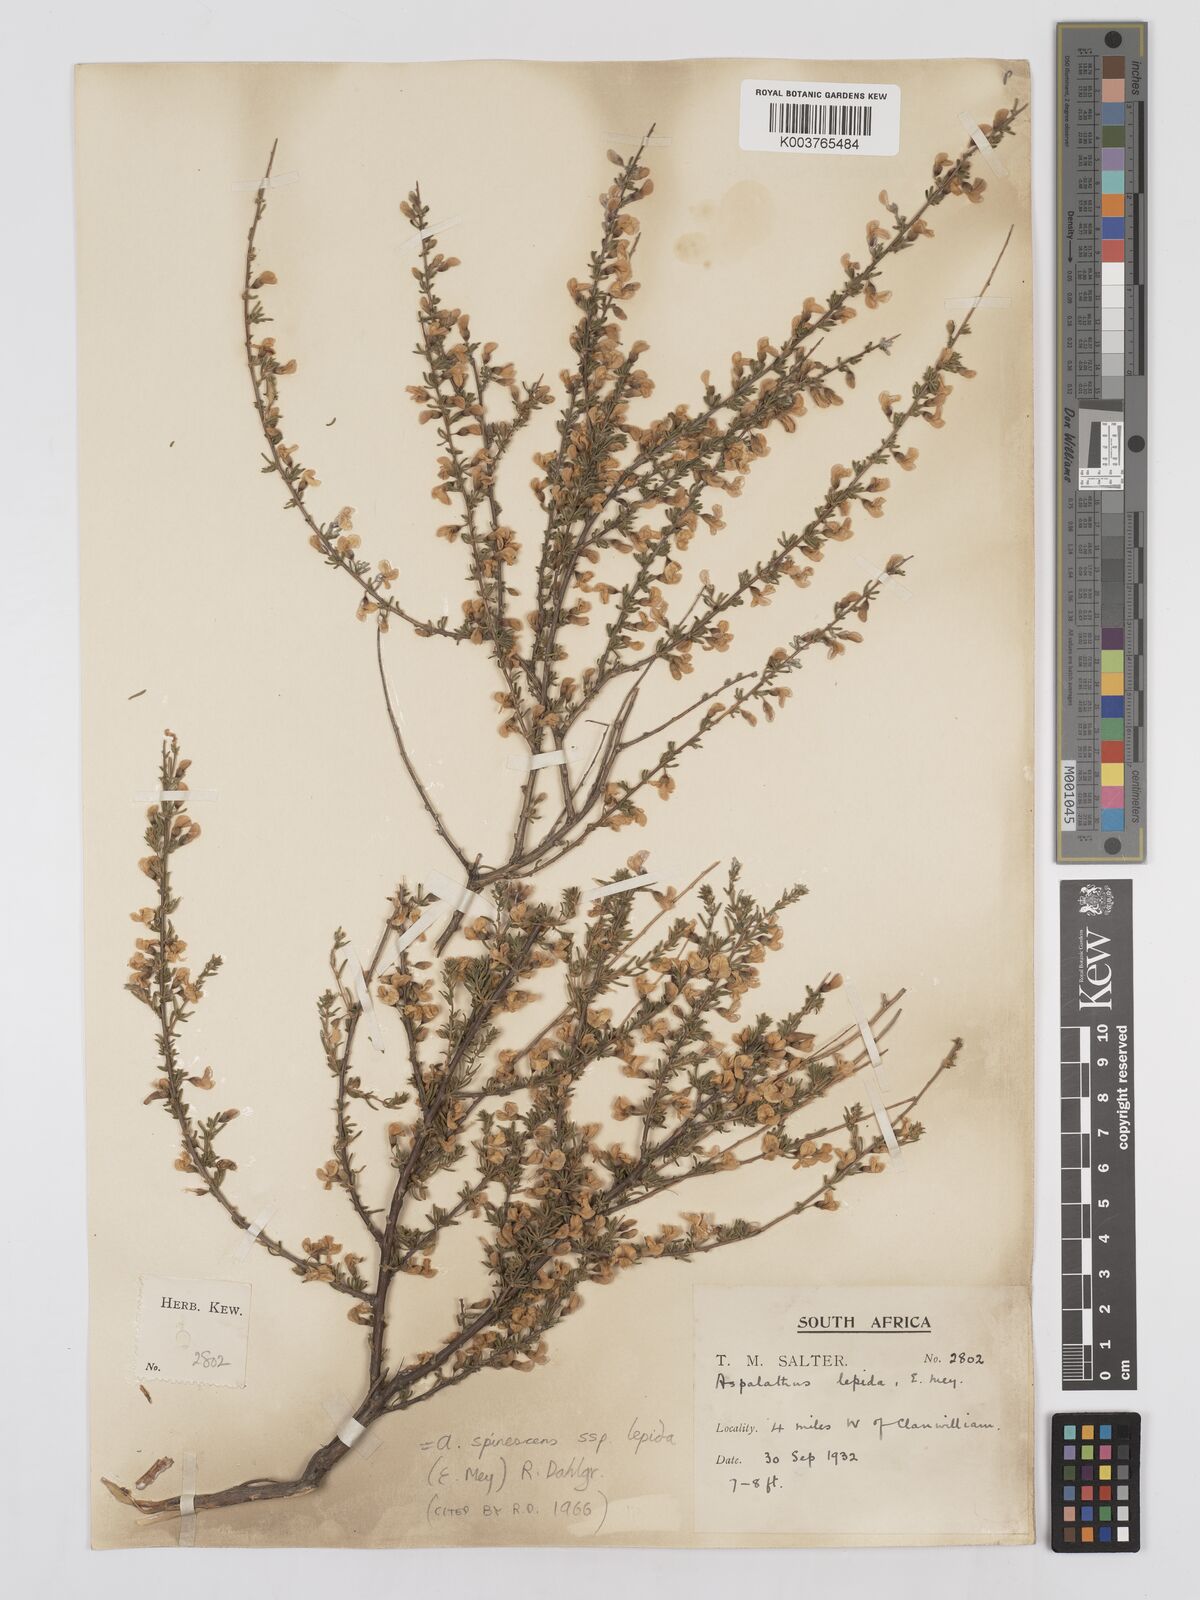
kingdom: Plantae
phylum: Tracheophyta
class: Magnoliopsida
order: Fabales
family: Fabaceae
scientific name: Fabaceae
